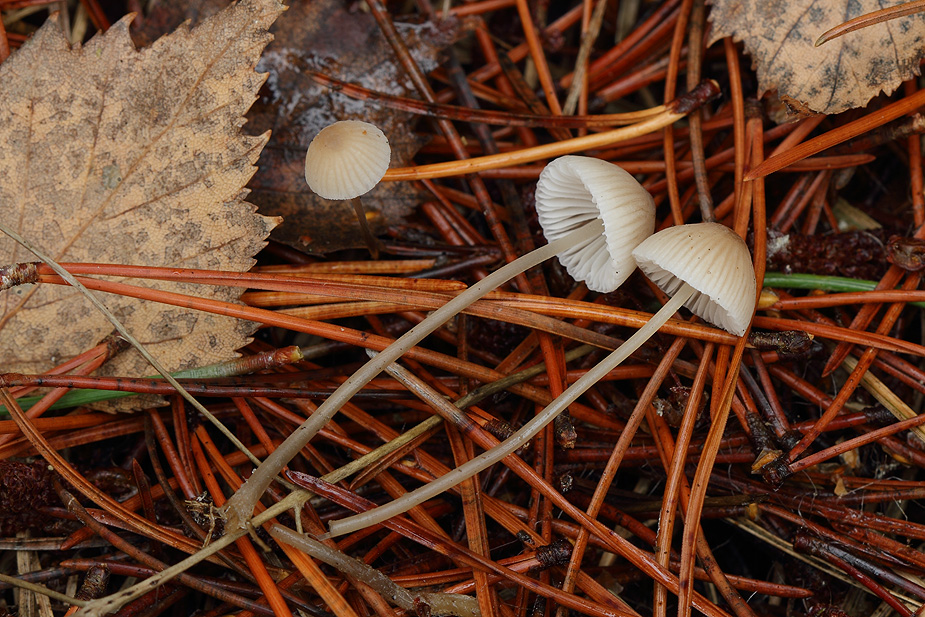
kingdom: Fungi
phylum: Basidiomycota
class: Agaricomycetes
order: Agaricales
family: Mycenaceae
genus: Mycena
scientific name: Mycena metata
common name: rødlig huesvamp
